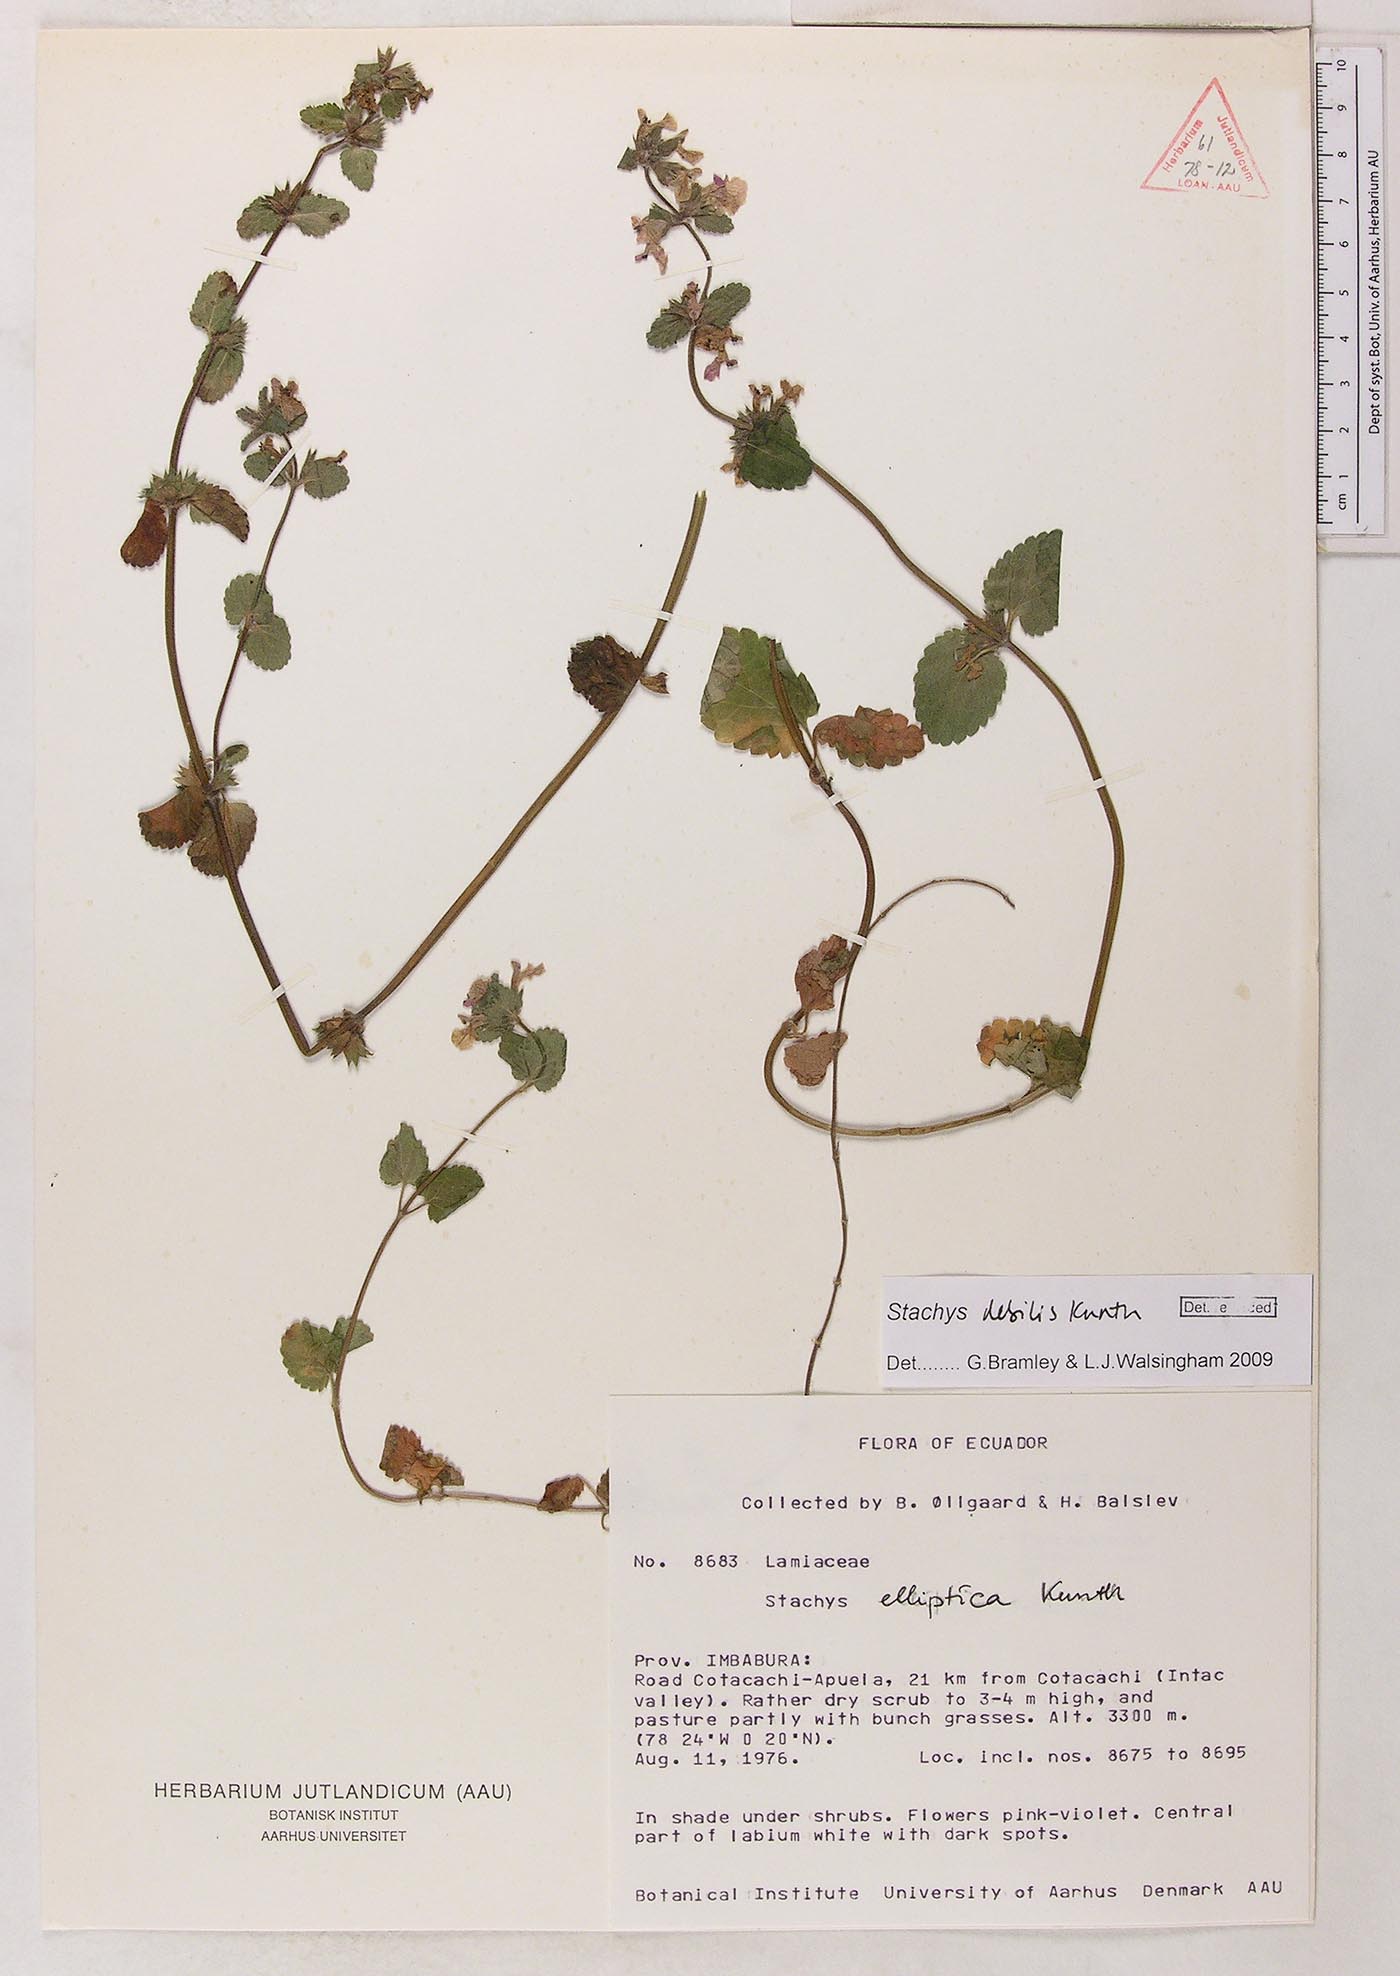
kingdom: Plantae
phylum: Tracheophyta
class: Magnoliopsida
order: Lamiales
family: Lamiaceae
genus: Stachys
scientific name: Stachys debilis
